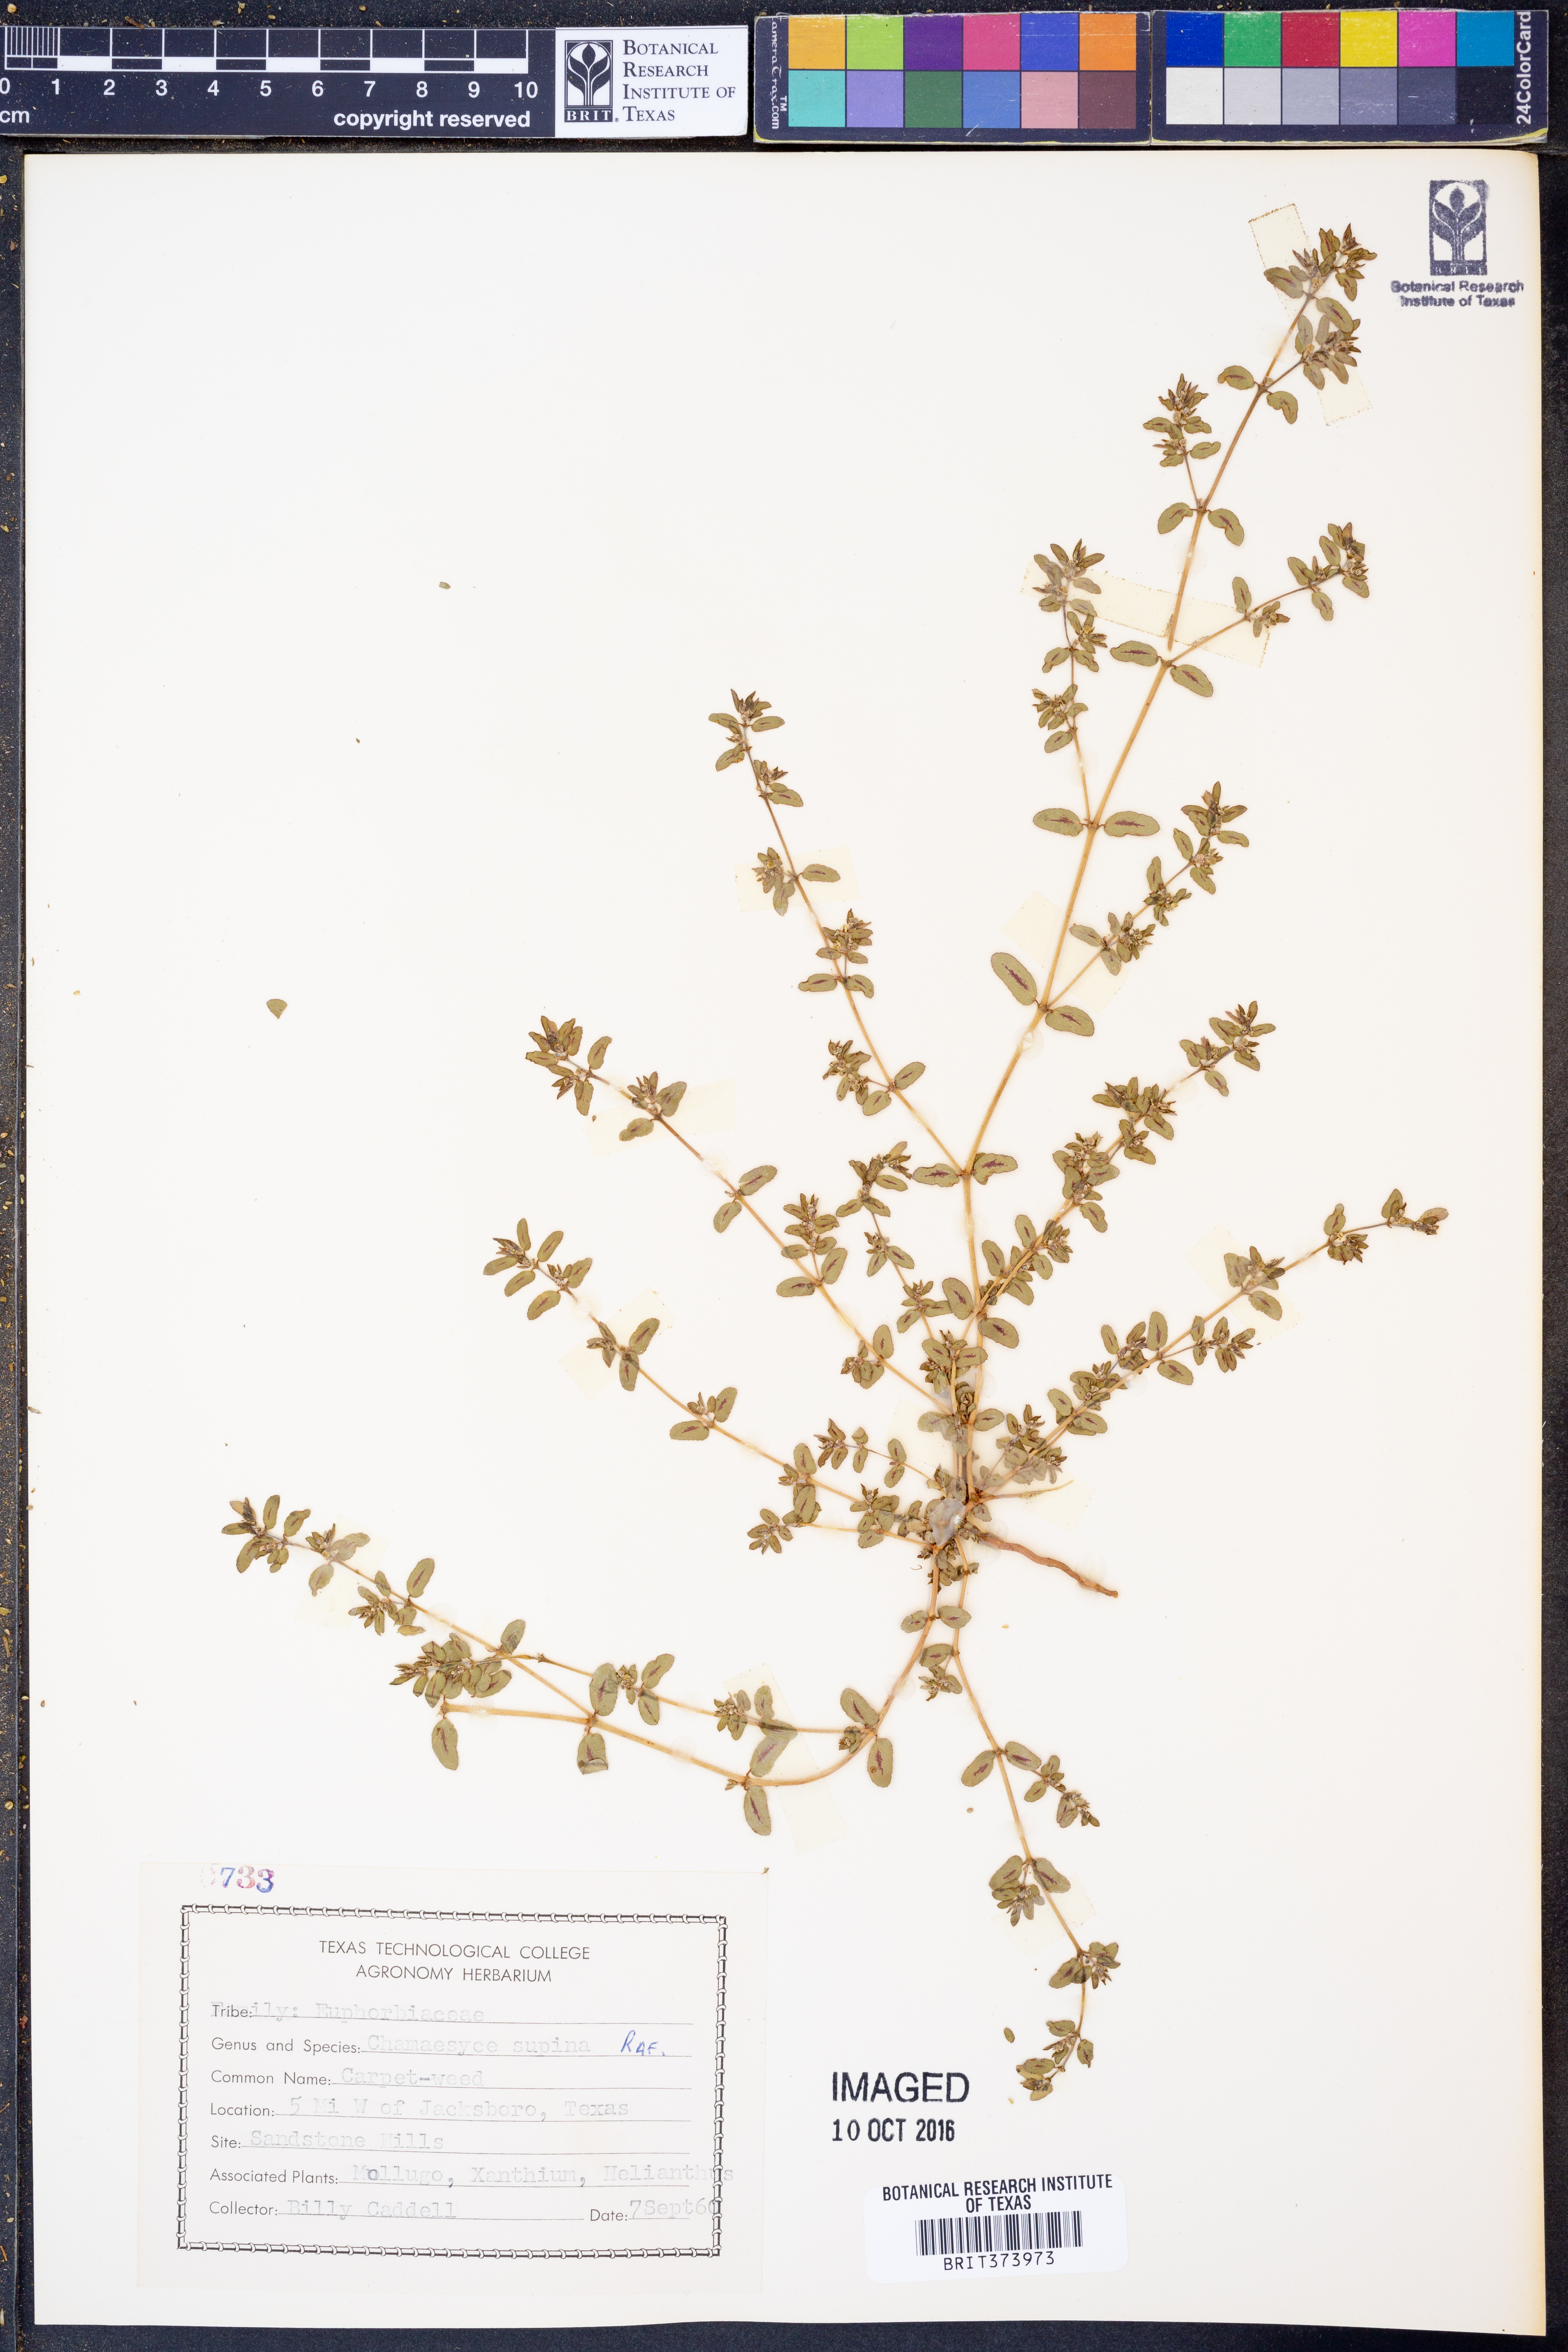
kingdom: Plantae
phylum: Tracheophyta
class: Magnoliopsida
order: Malpighiales
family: Euphorbiaceae
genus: Euphorbia
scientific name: Euphorbia maculata
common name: Spotted spurge
